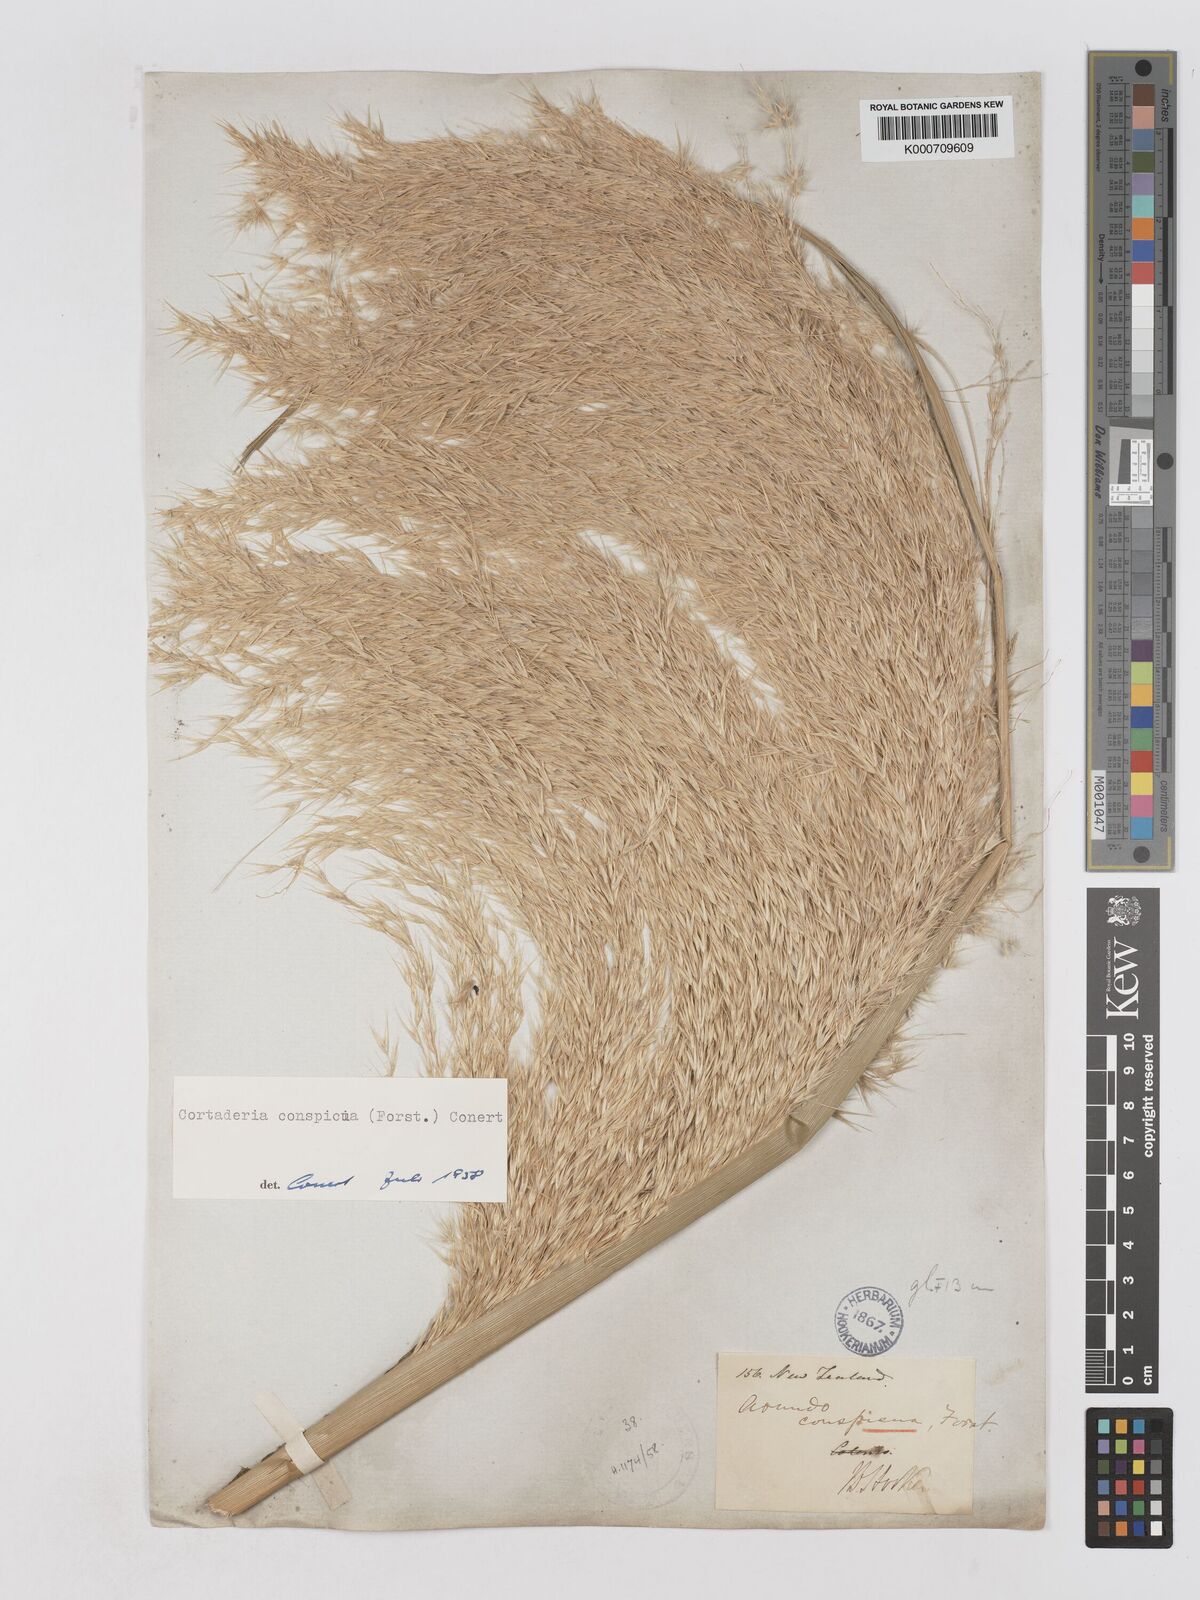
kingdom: Plantae
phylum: Tracheophyta
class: Liliopsida
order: Poales
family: Poaceae
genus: Austroderia
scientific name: Austroderia richardii
